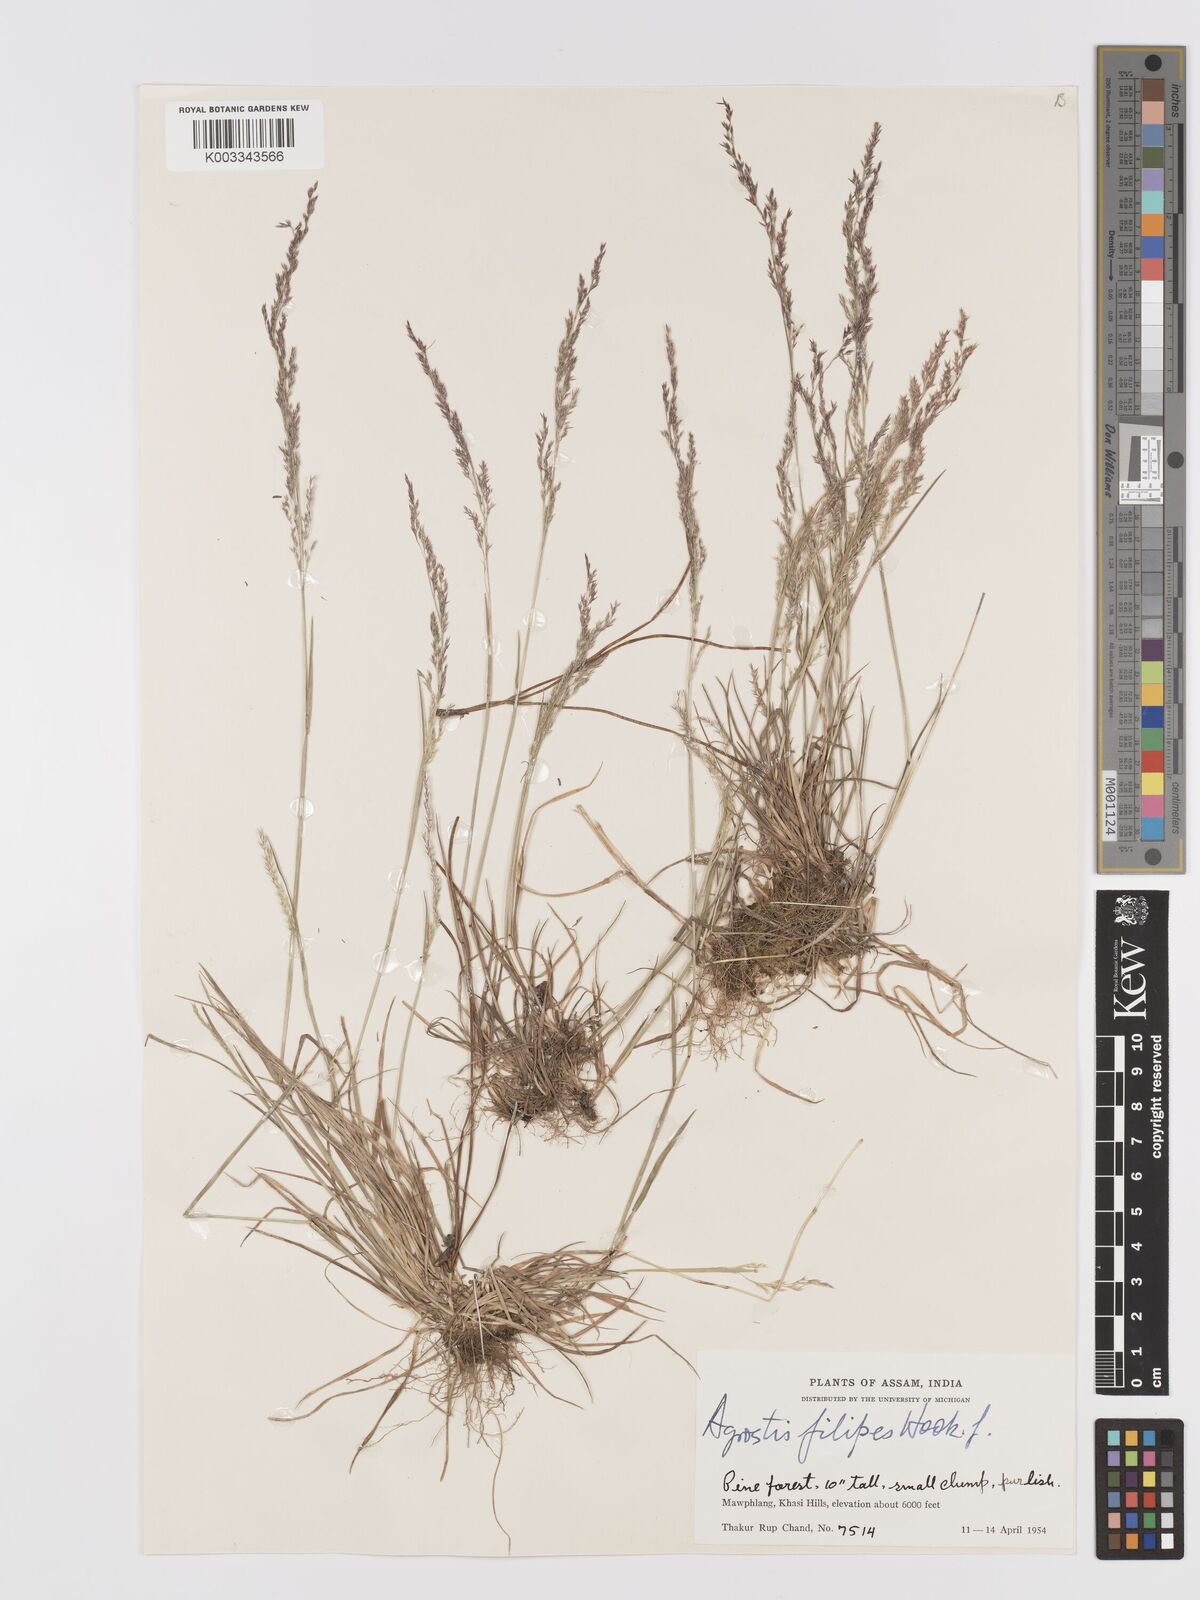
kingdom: Plantae
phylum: Tracheophyta
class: Liliopsida
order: Poales
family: Poaceae
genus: Agrostis
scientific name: Agrostis filipes
